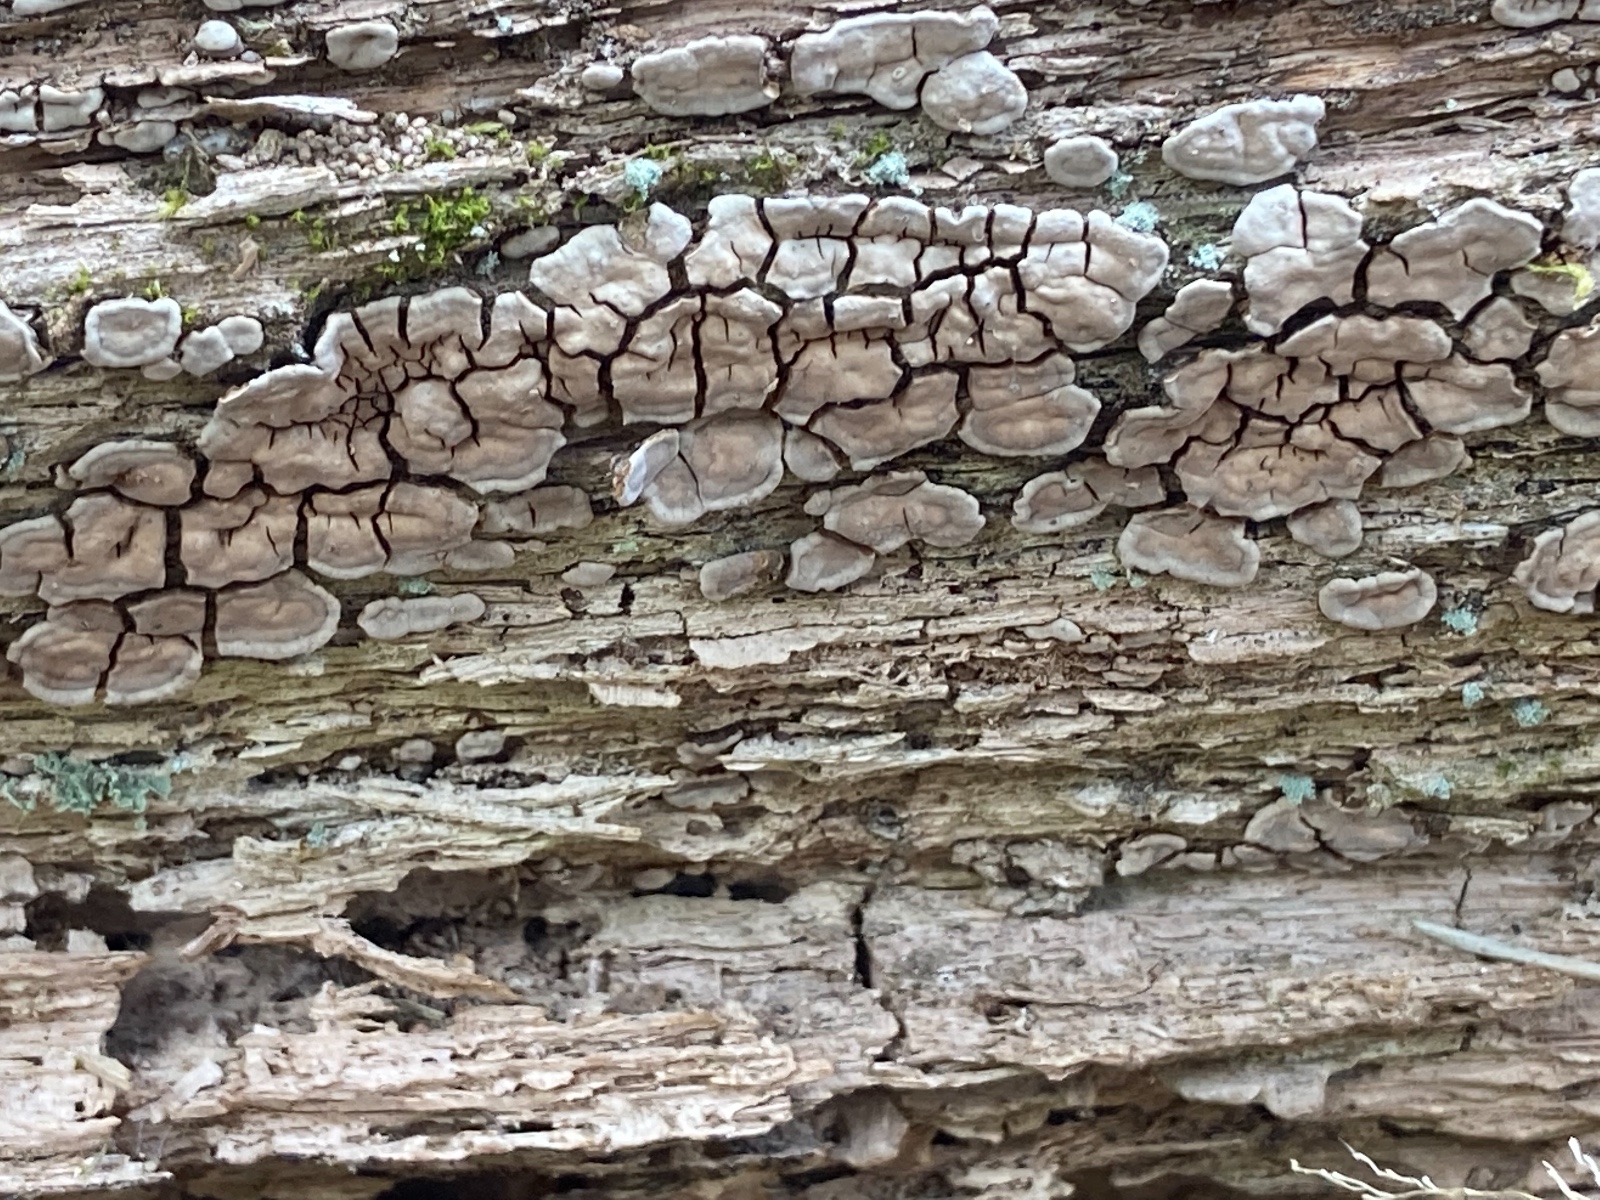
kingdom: Fungi
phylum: Basidiomycota
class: Agaricomycetes
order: Russulales
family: Stereaceae
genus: Xylobolus
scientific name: Xylobolus frustulatus
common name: mønster-lædersvamp
